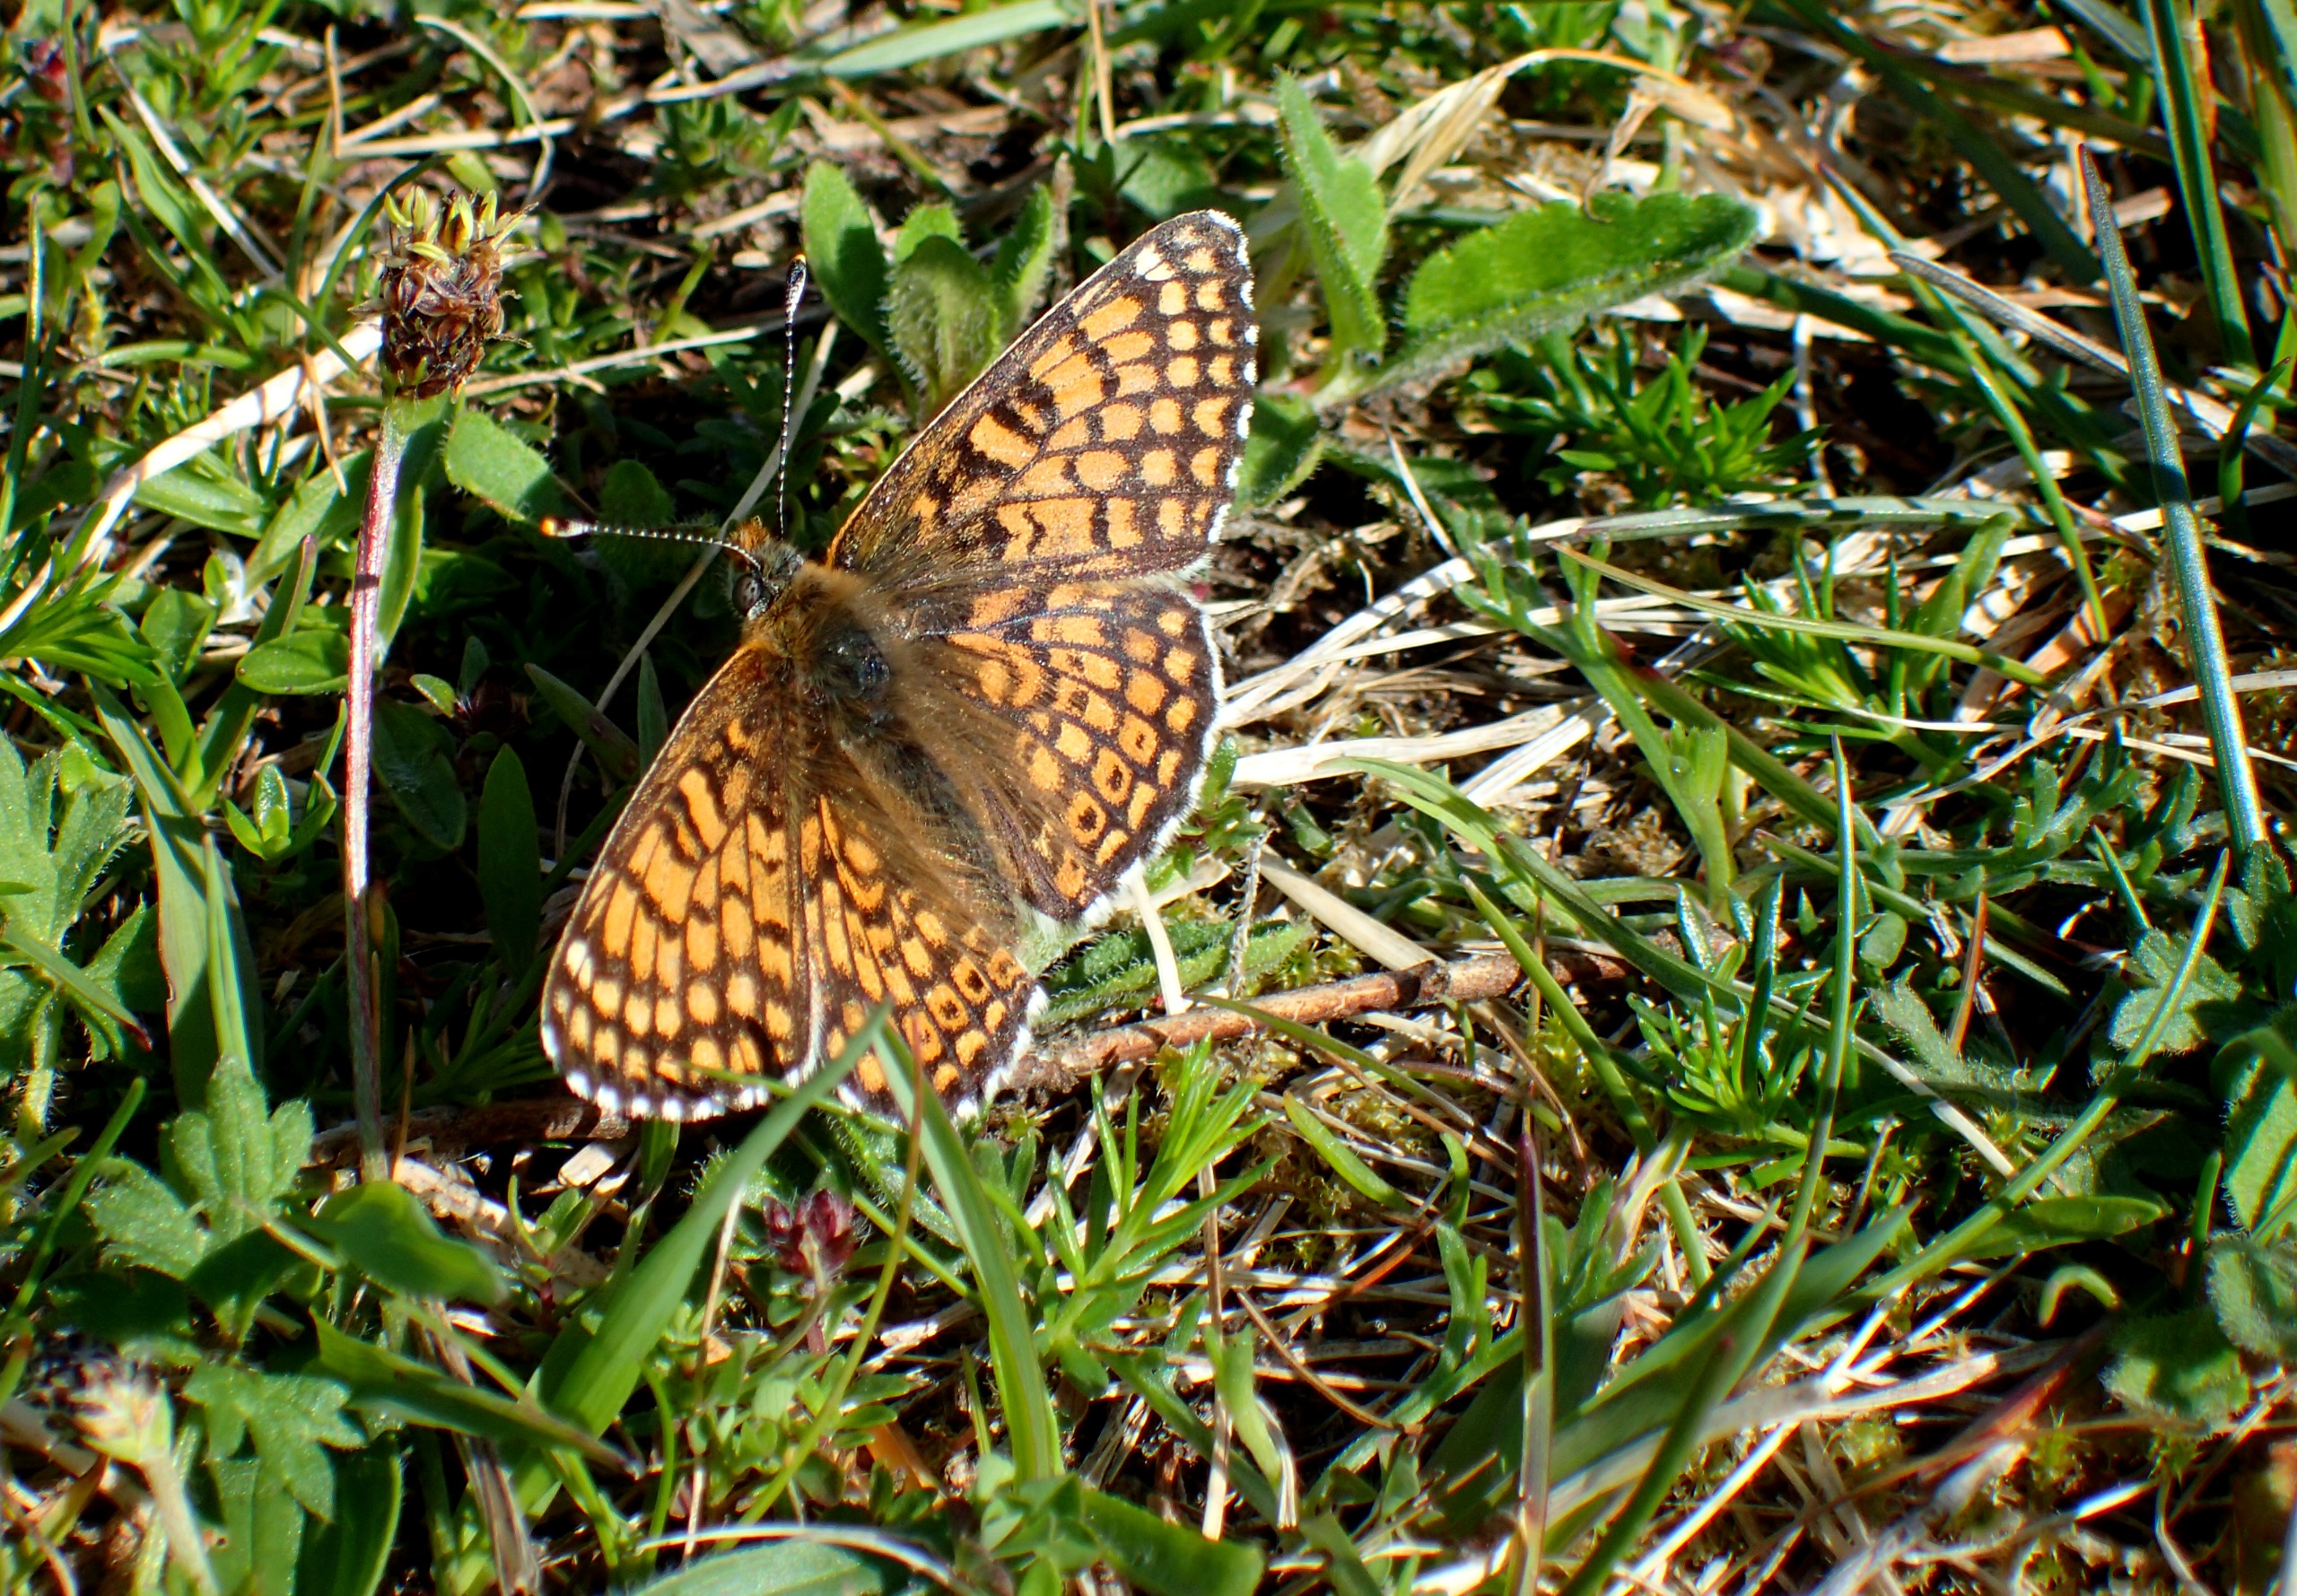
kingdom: Animalia
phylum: Arthropoda
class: Insecta
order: Lepidoptera
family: Nymphalidae
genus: Melitaea
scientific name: Melitaea cinxia
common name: Okkergul pletvinge
